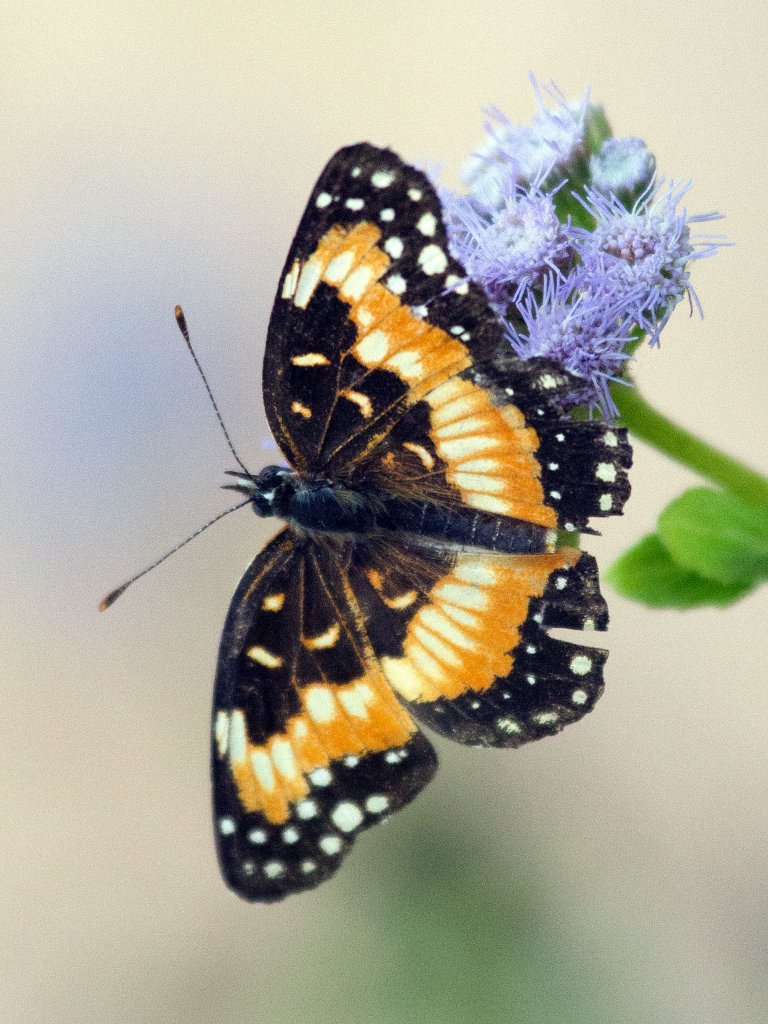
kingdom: Animalia
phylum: Arthropoda
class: Insecta
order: Lepidoptera
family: Nymphalidae
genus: Chlosyne
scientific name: Chlosyne lacinia
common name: Bordered Patch
